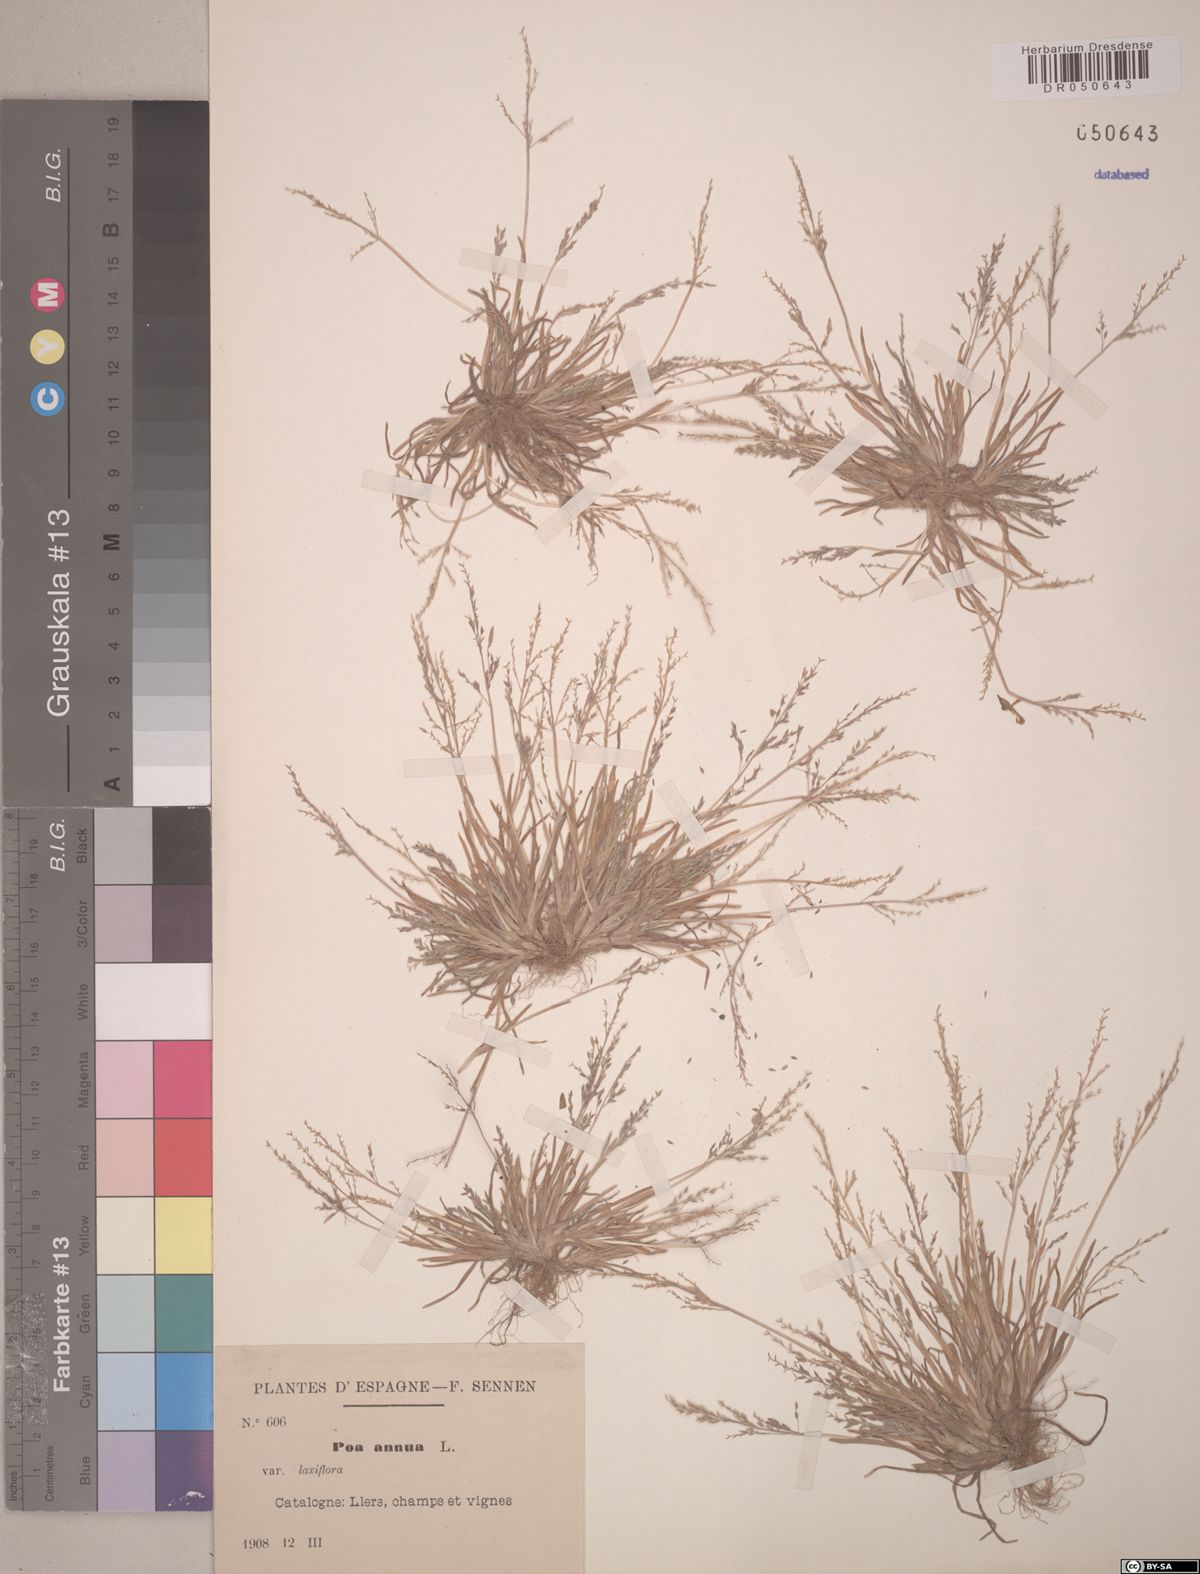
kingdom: Plantae
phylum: Tracheophyta
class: Liliopsida
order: Poales
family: Poaceae
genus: Poa
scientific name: Poa annua
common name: Annual bluegrass
